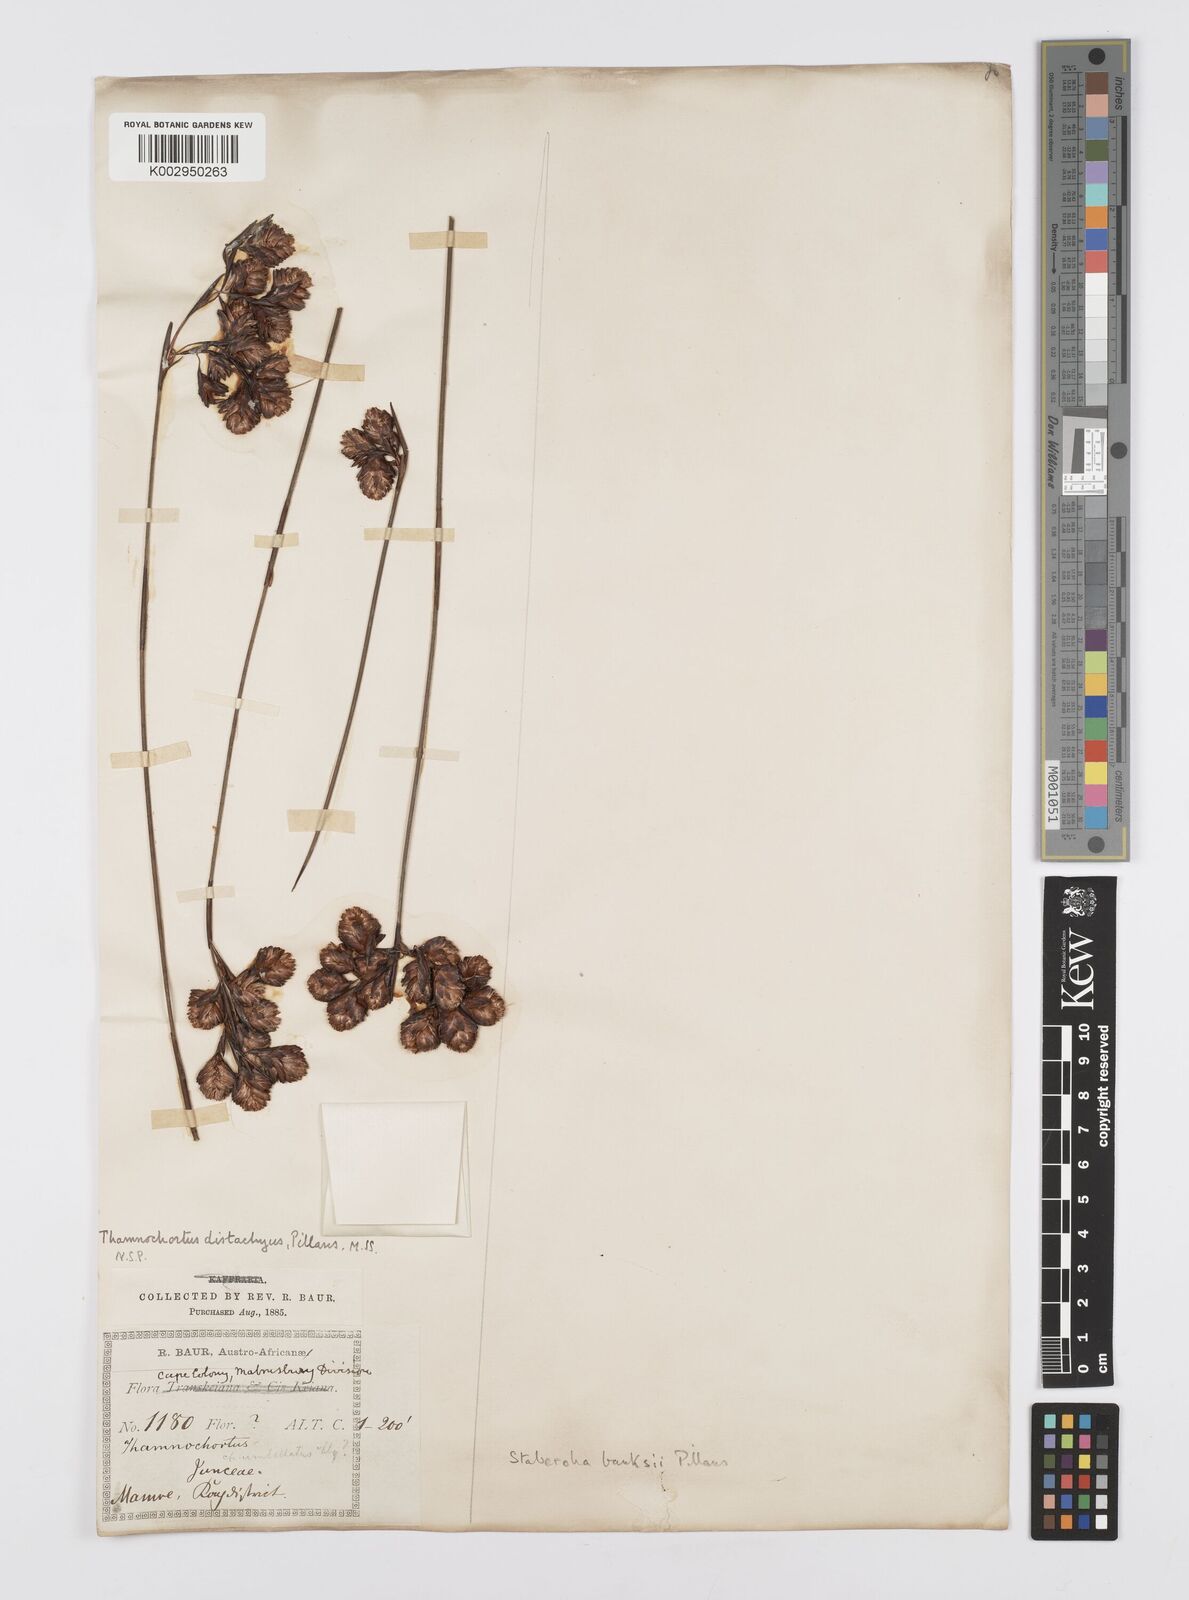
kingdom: Plantae
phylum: Tracheophyta
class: Liliopsida
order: Poales
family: Restionaceae
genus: Staberoha
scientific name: Staberoha banksii
